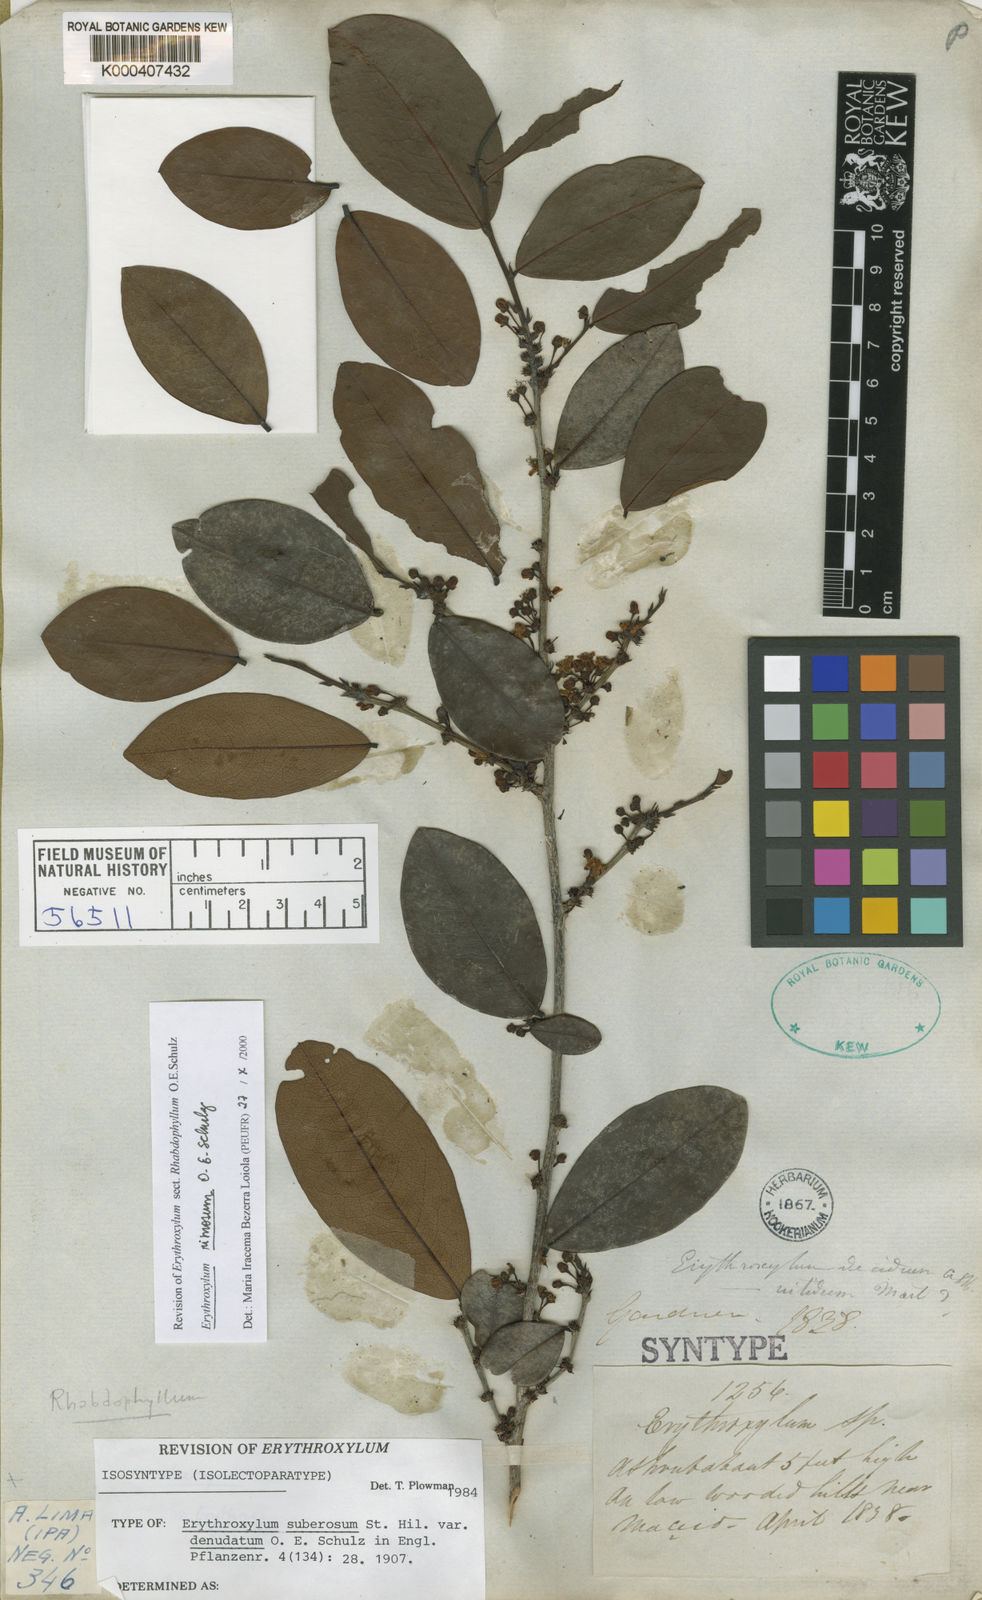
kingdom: Plantae
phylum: Tracheophyta
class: Magnoliopsida
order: Malpighiales
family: Erythroxylaceae
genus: Erythroxylum
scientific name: Erythroxylum rimosum
